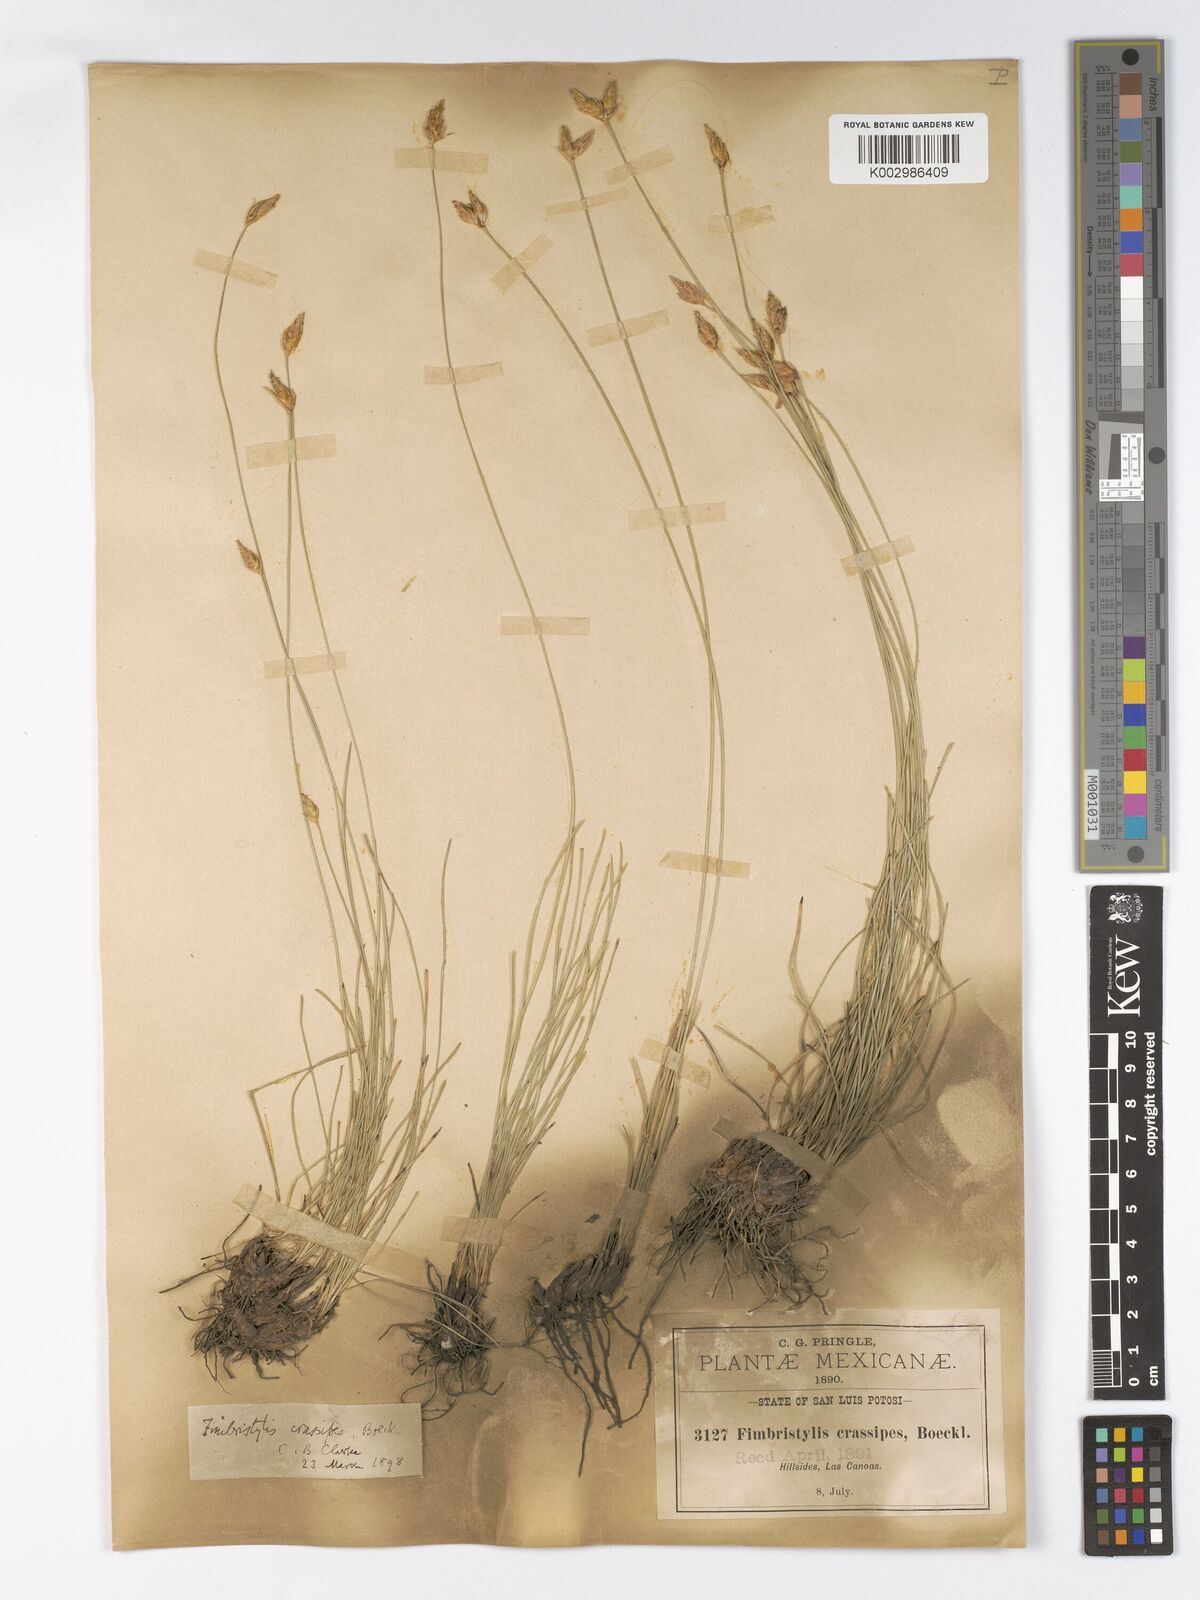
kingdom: Plantae
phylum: Tracheophyta
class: Liliopsida
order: Poales
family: Cyperaceae
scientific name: Cyperaceae
